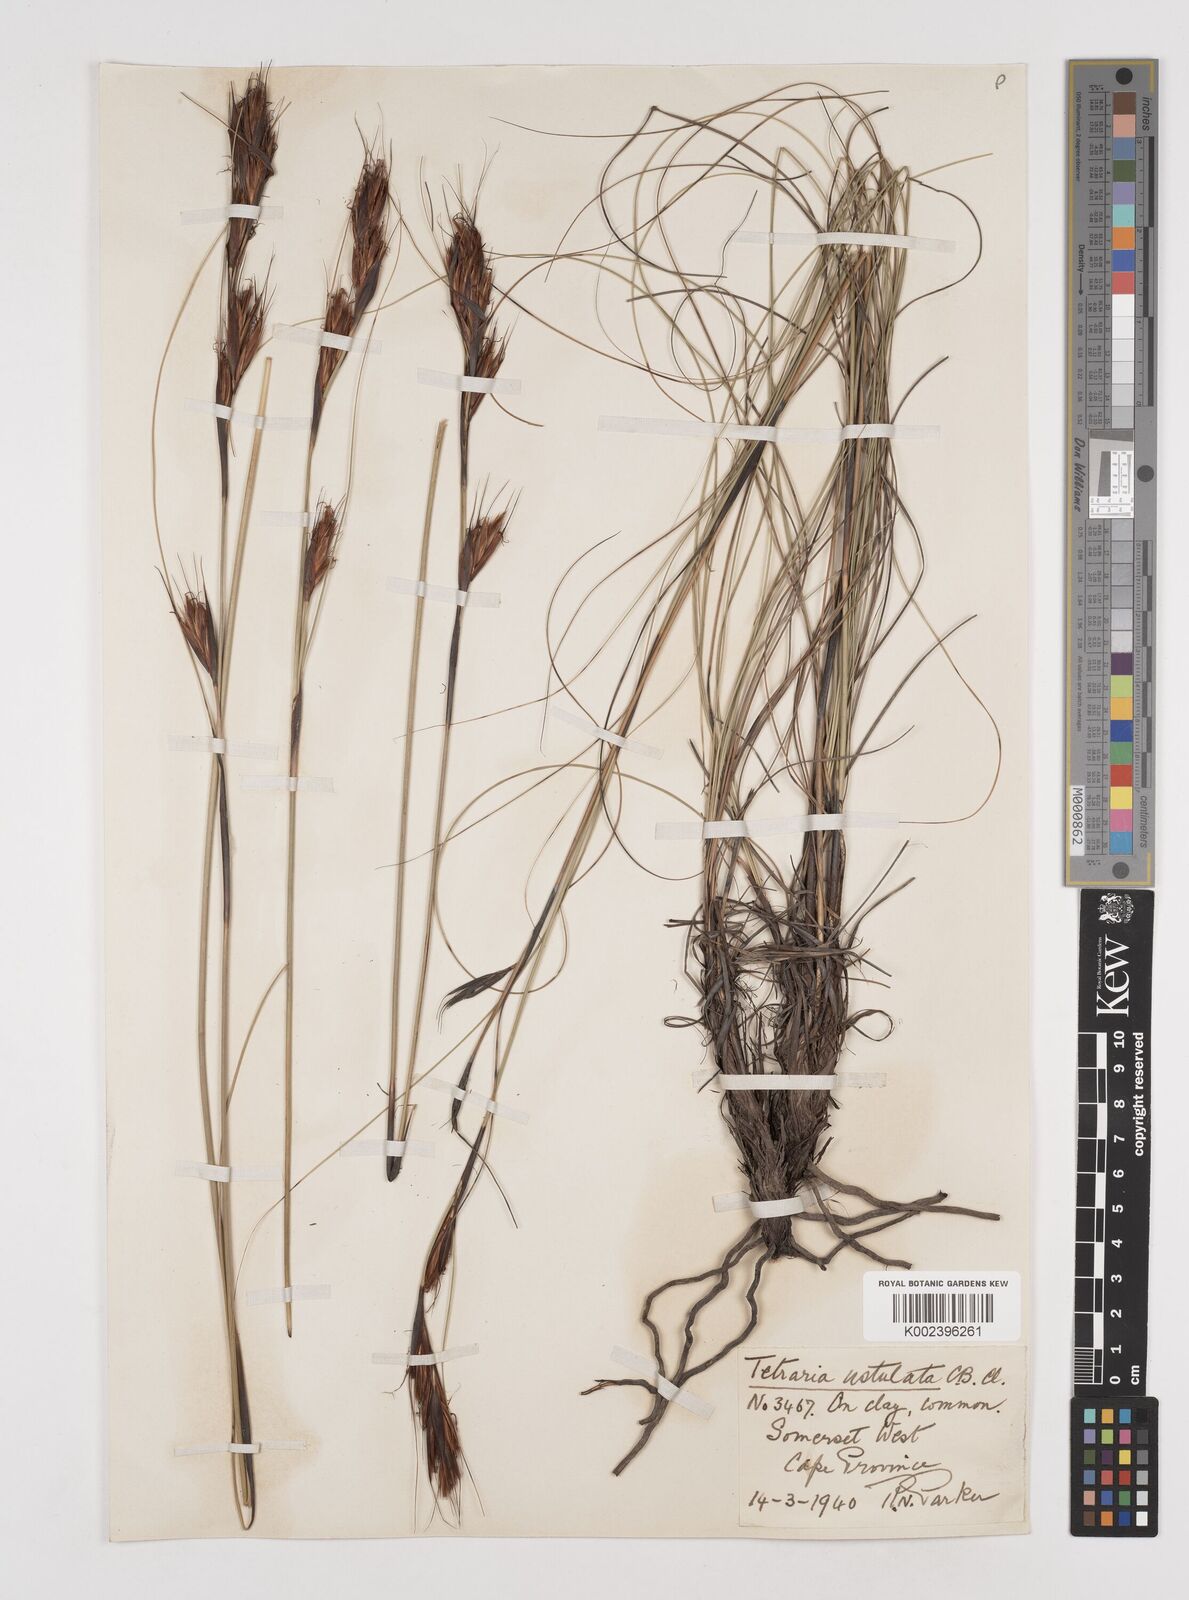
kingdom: Plantae
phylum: Tracheophyta
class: Liliopsida
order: Poales
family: Cyperaceae
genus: Tetraria
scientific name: Tetraria ustulata
